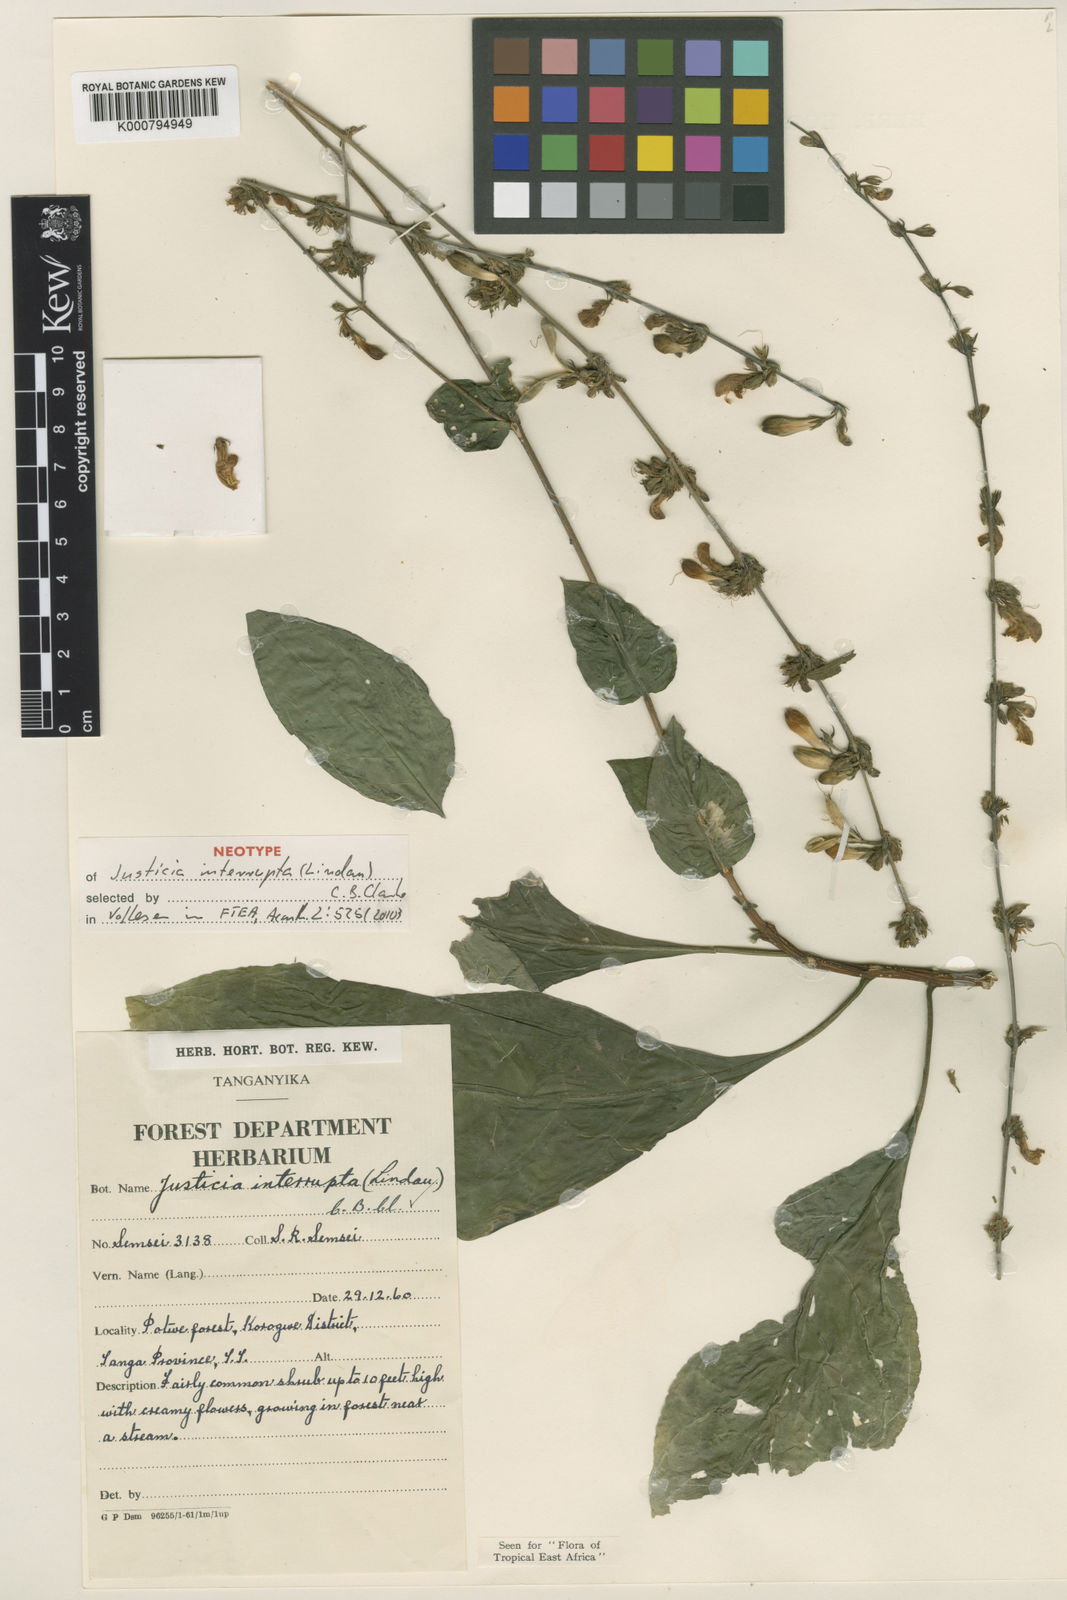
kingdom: Plantae
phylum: Tracheophyta
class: Magnoliopsida
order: Lamiales
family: Acanthaceae
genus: Justicia
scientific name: Justicia
